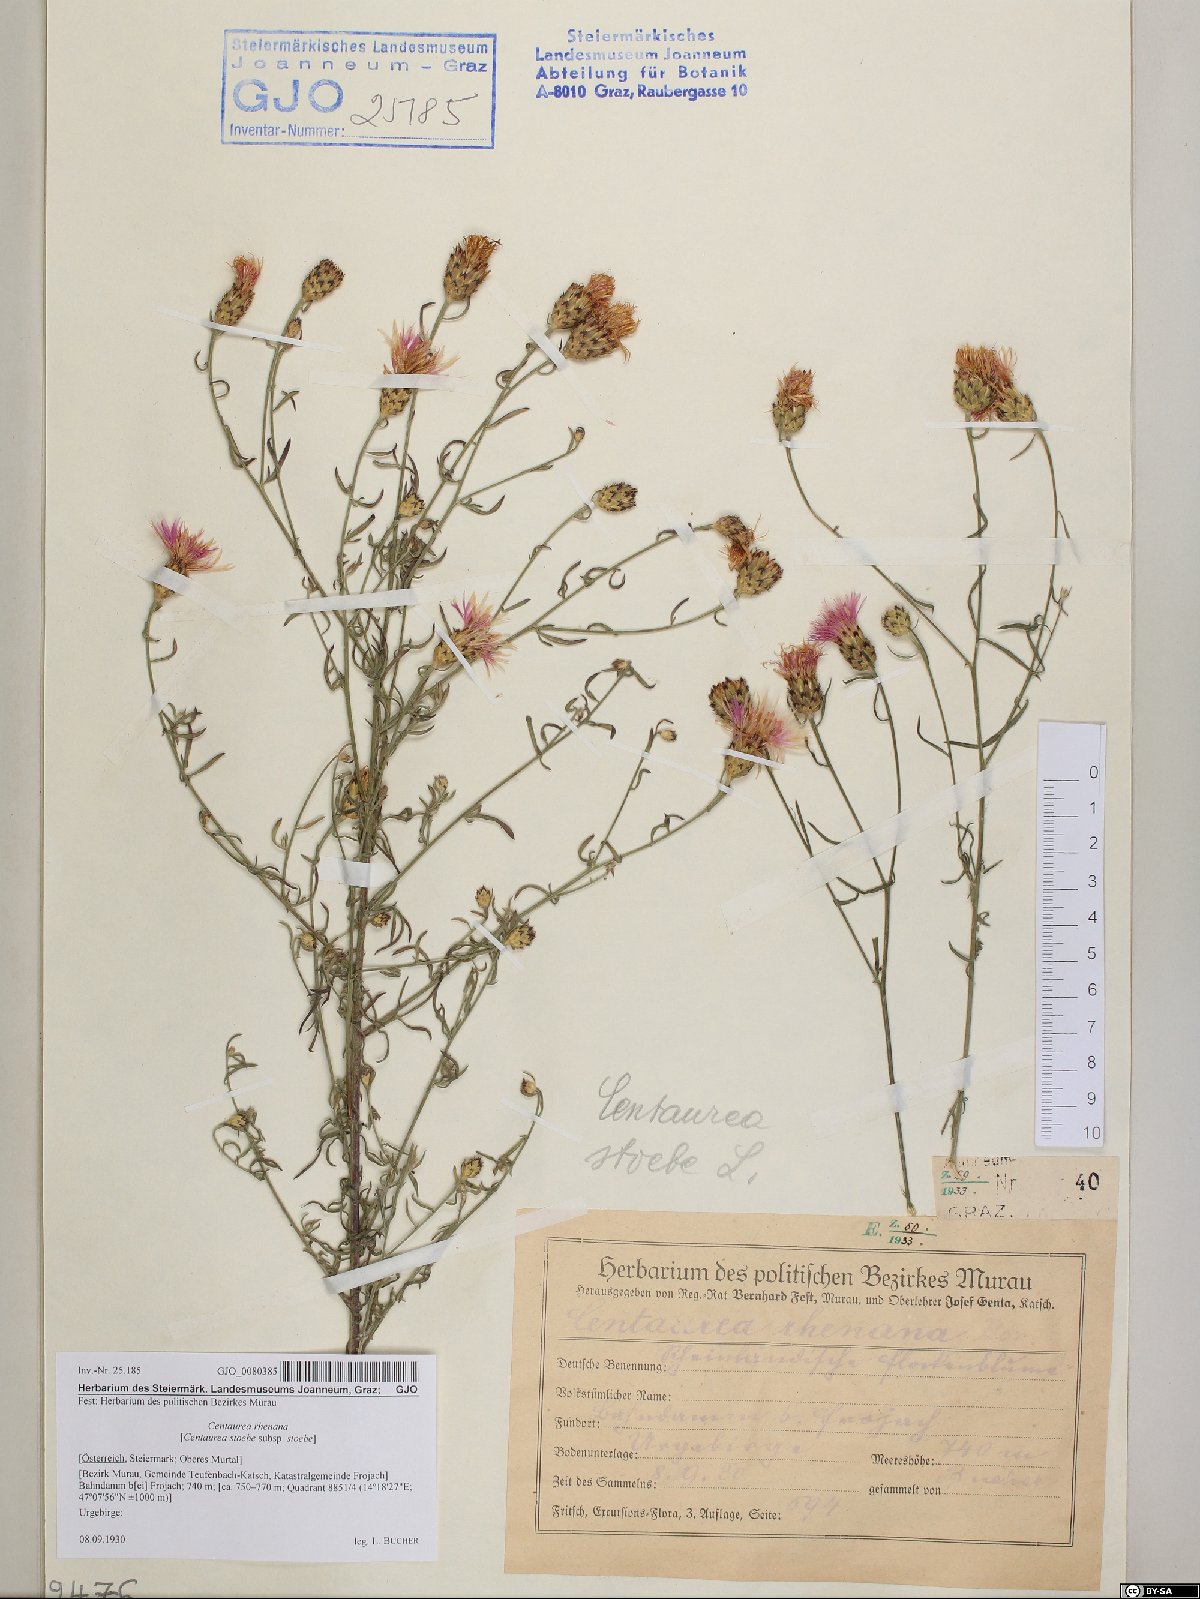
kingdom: Plantae
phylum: Tracheophyta
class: Magnoliopsida
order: Asterales
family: Asteraceae
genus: Centaurea
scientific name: Centaurea stoebe
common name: Spotted knapweed
